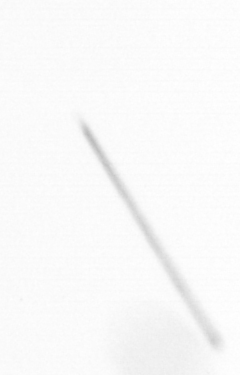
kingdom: Chromista
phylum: Ochrophyta
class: Bacillariophyceae
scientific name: Bacillariophyceae
